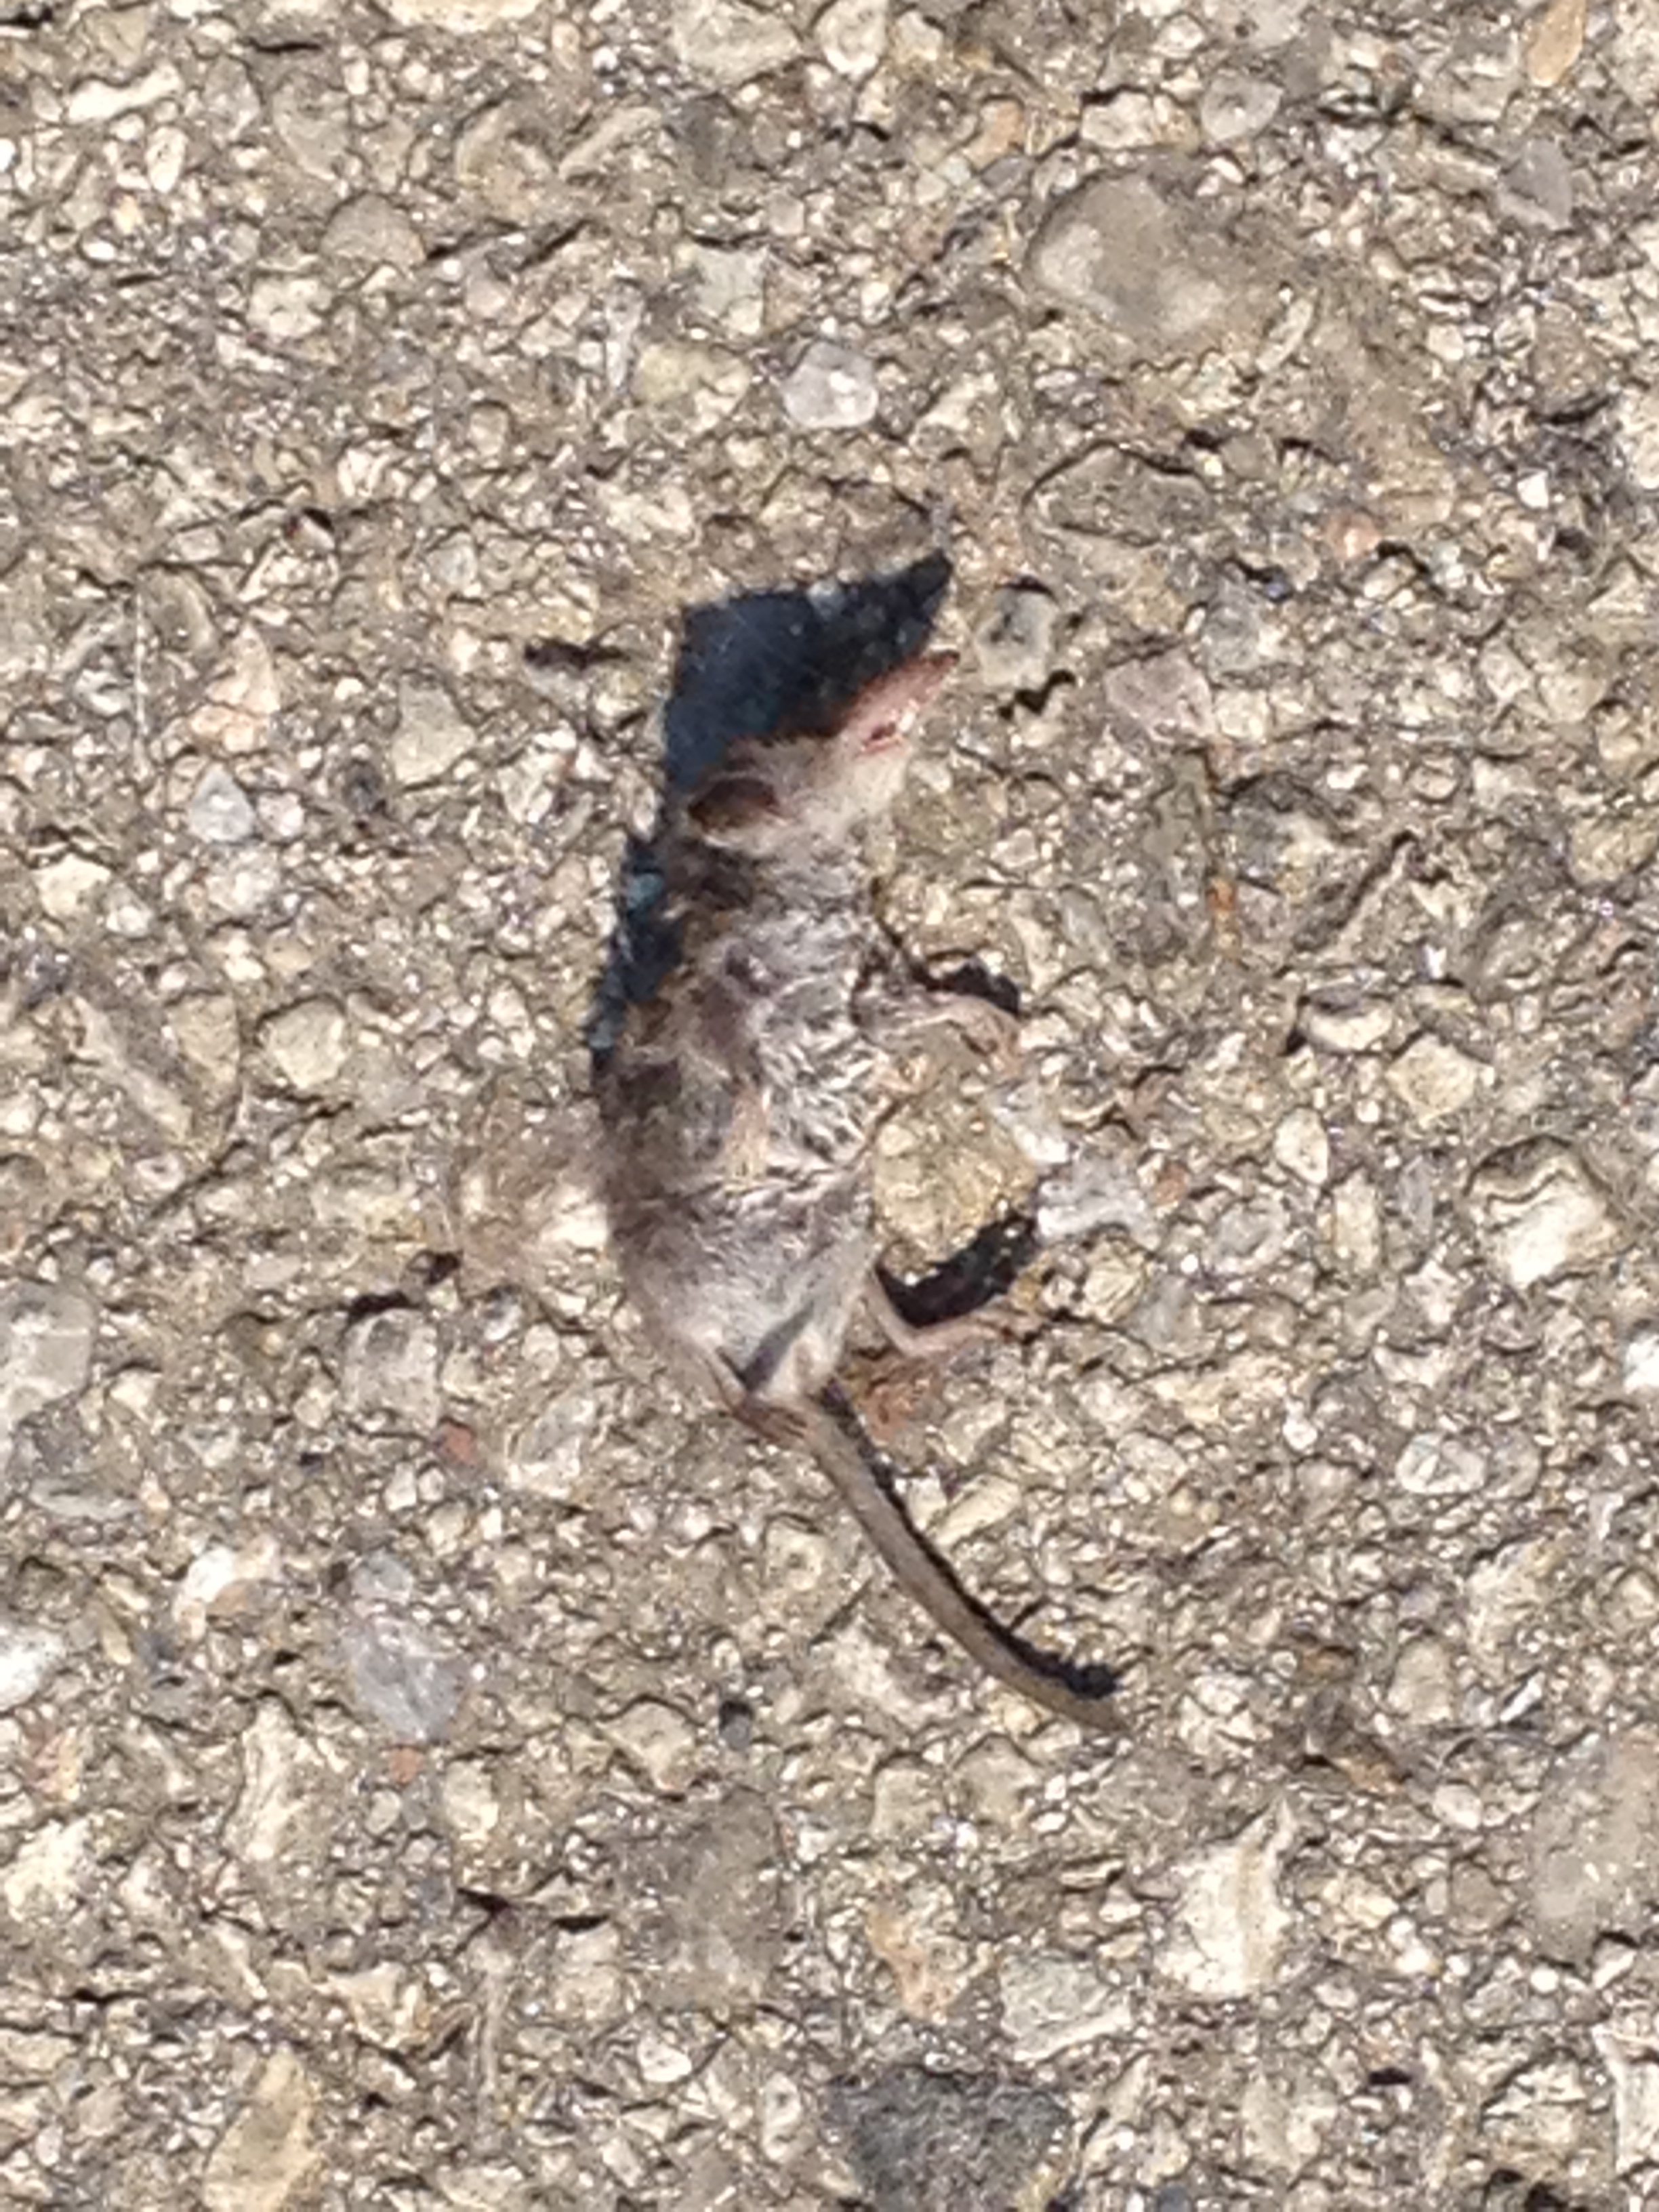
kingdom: Animalia
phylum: Chordata
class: Mammalia
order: Soricomorpha
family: Soricidae
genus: Crocidura
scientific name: Crocidura
